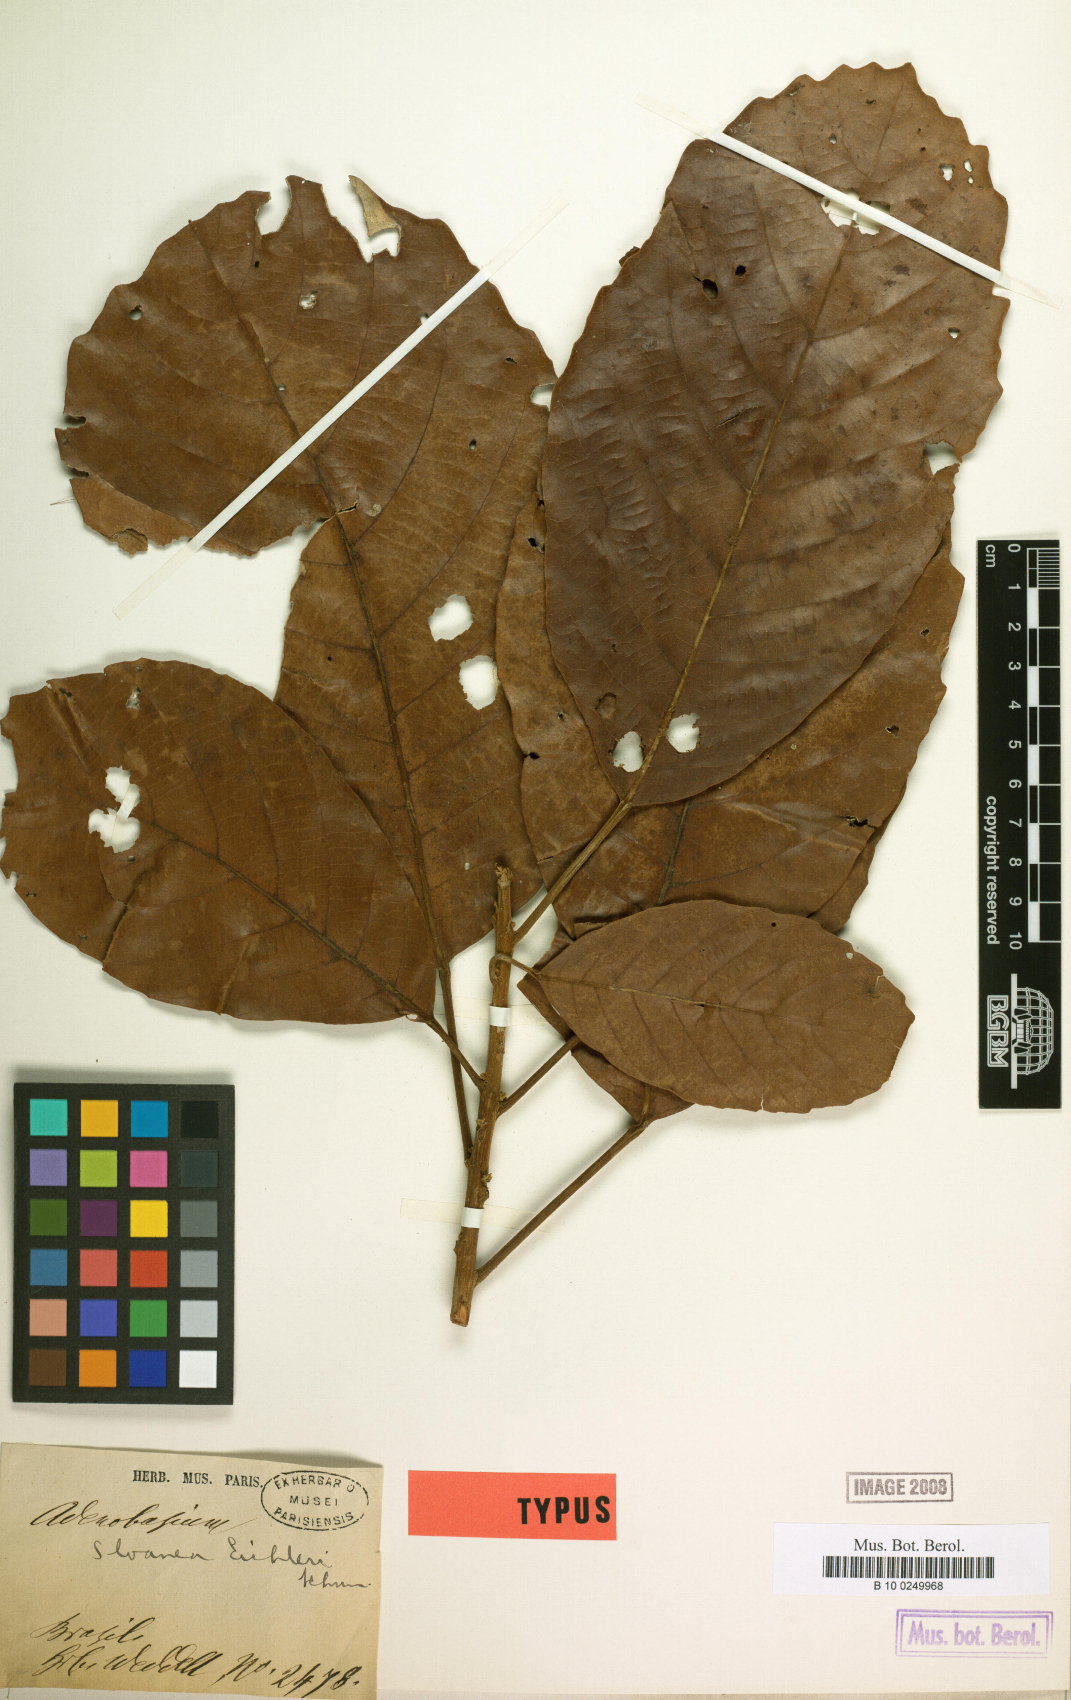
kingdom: Plantae
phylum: Tracheophyta
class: Magnoliopsida
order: Oxalidales
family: Elaeocarpaceae
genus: Sloanea
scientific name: Sloanea eichleri
